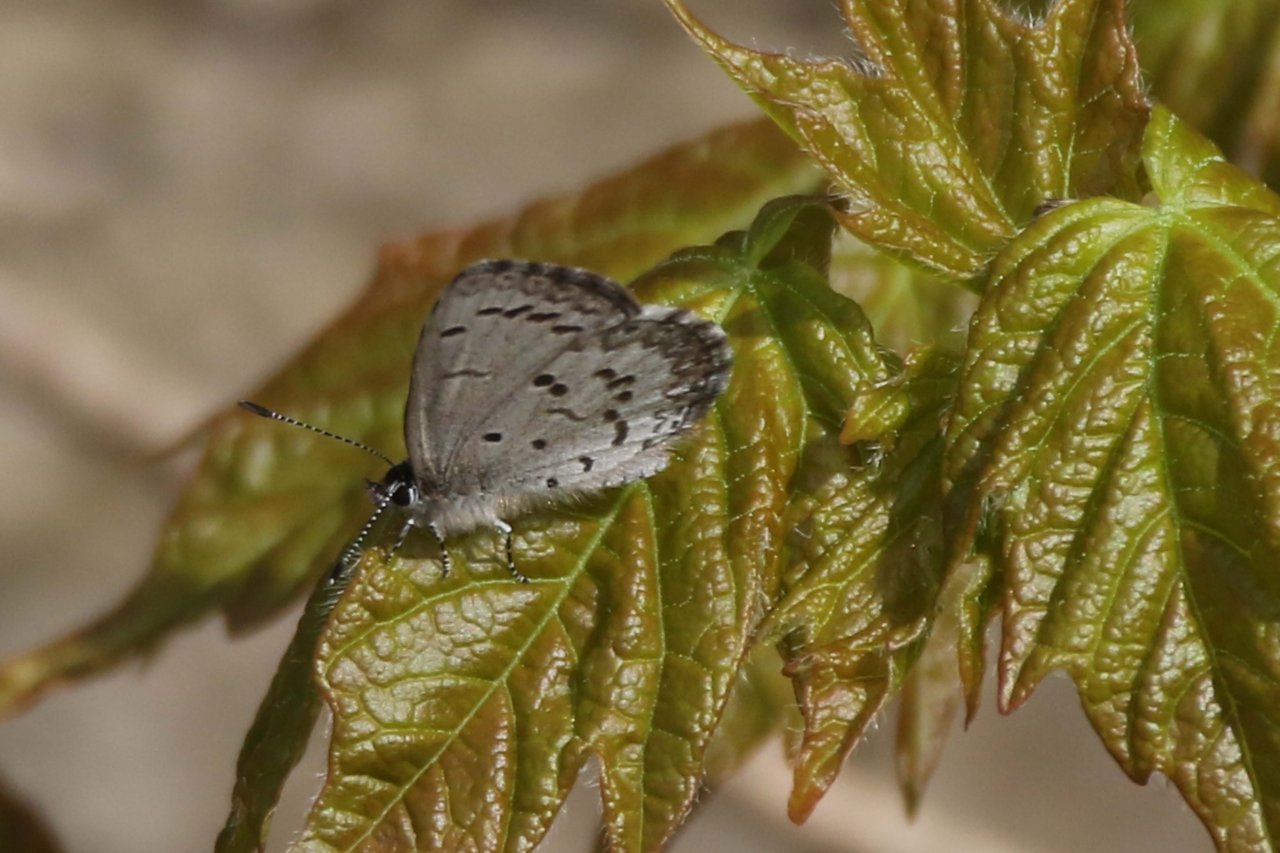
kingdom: Animalia
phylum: Arthropoda
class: Insecta
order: Lepidoptera
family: Lycaenidae
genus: Celastrina
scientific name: Celastrina lucia
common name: Northern Spring Azure
